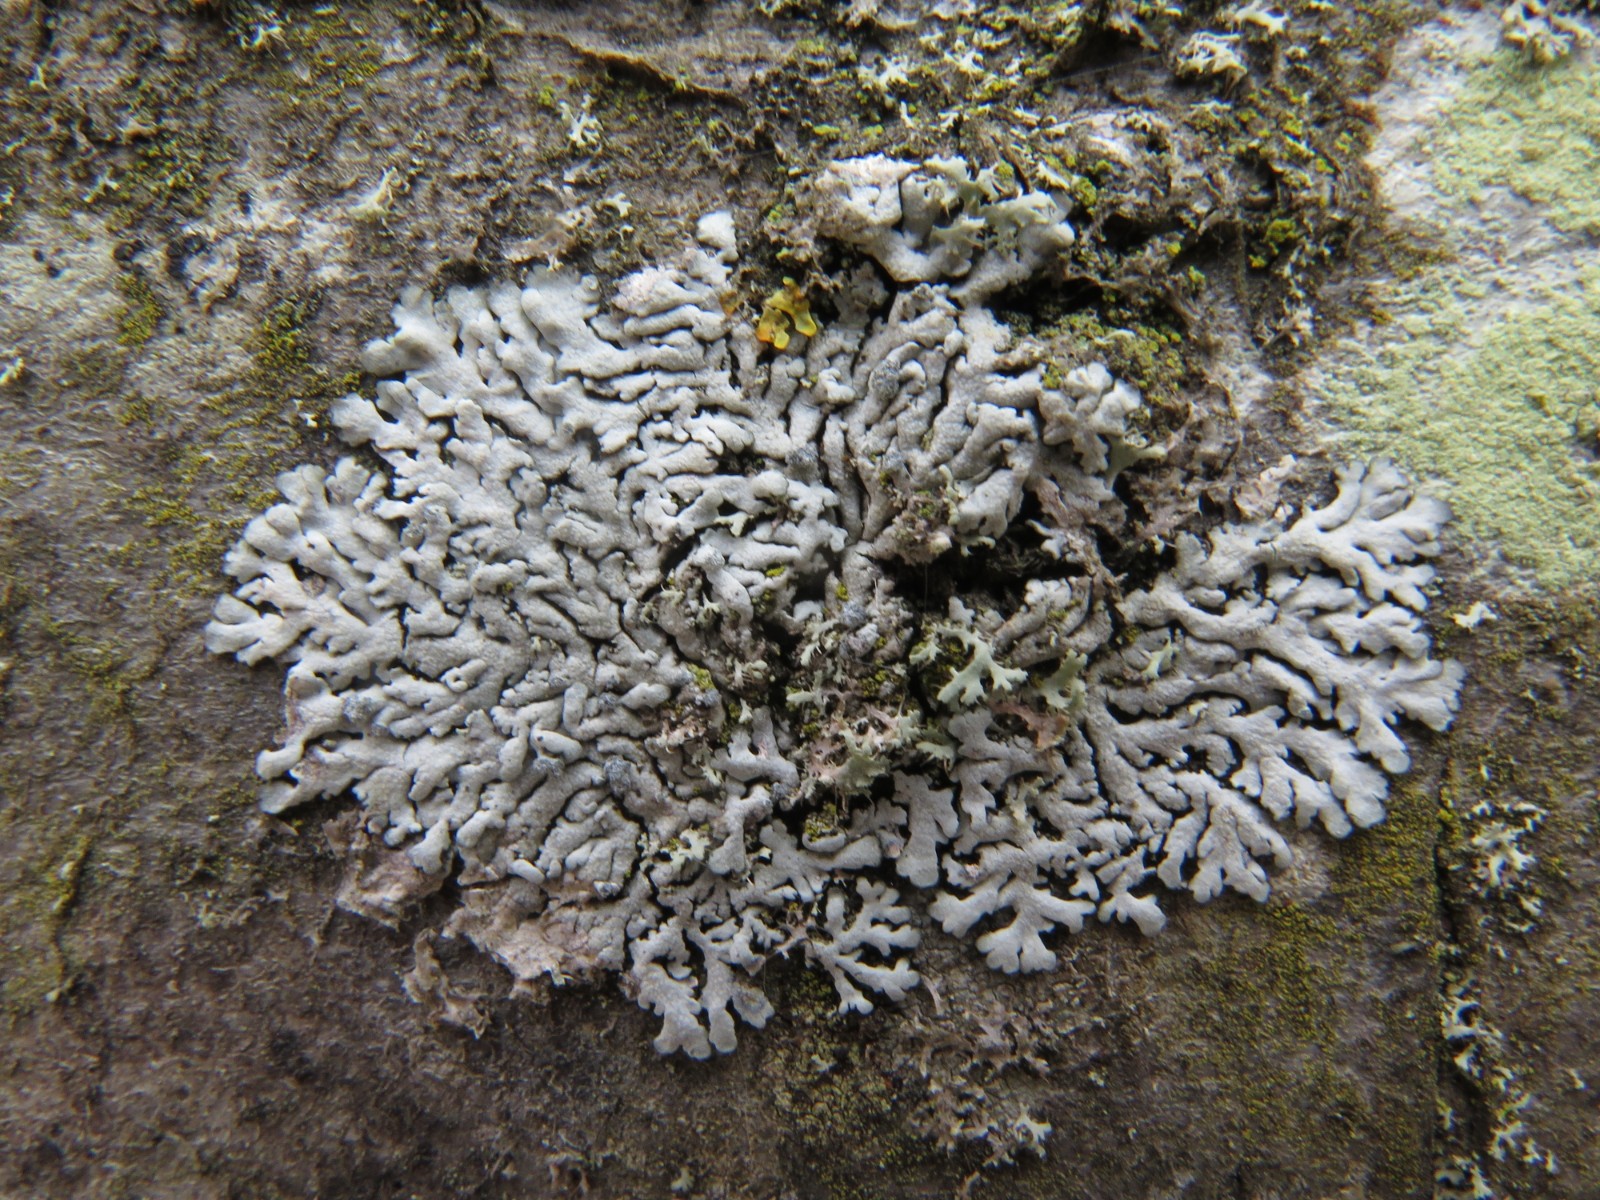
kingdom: Fungi
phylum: Ascomycota
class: Lecanoromycetes
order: Caliciales
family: Physciaceae
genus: Physcia
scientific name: Physcia dubia
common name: fuglestens-rosetlav
